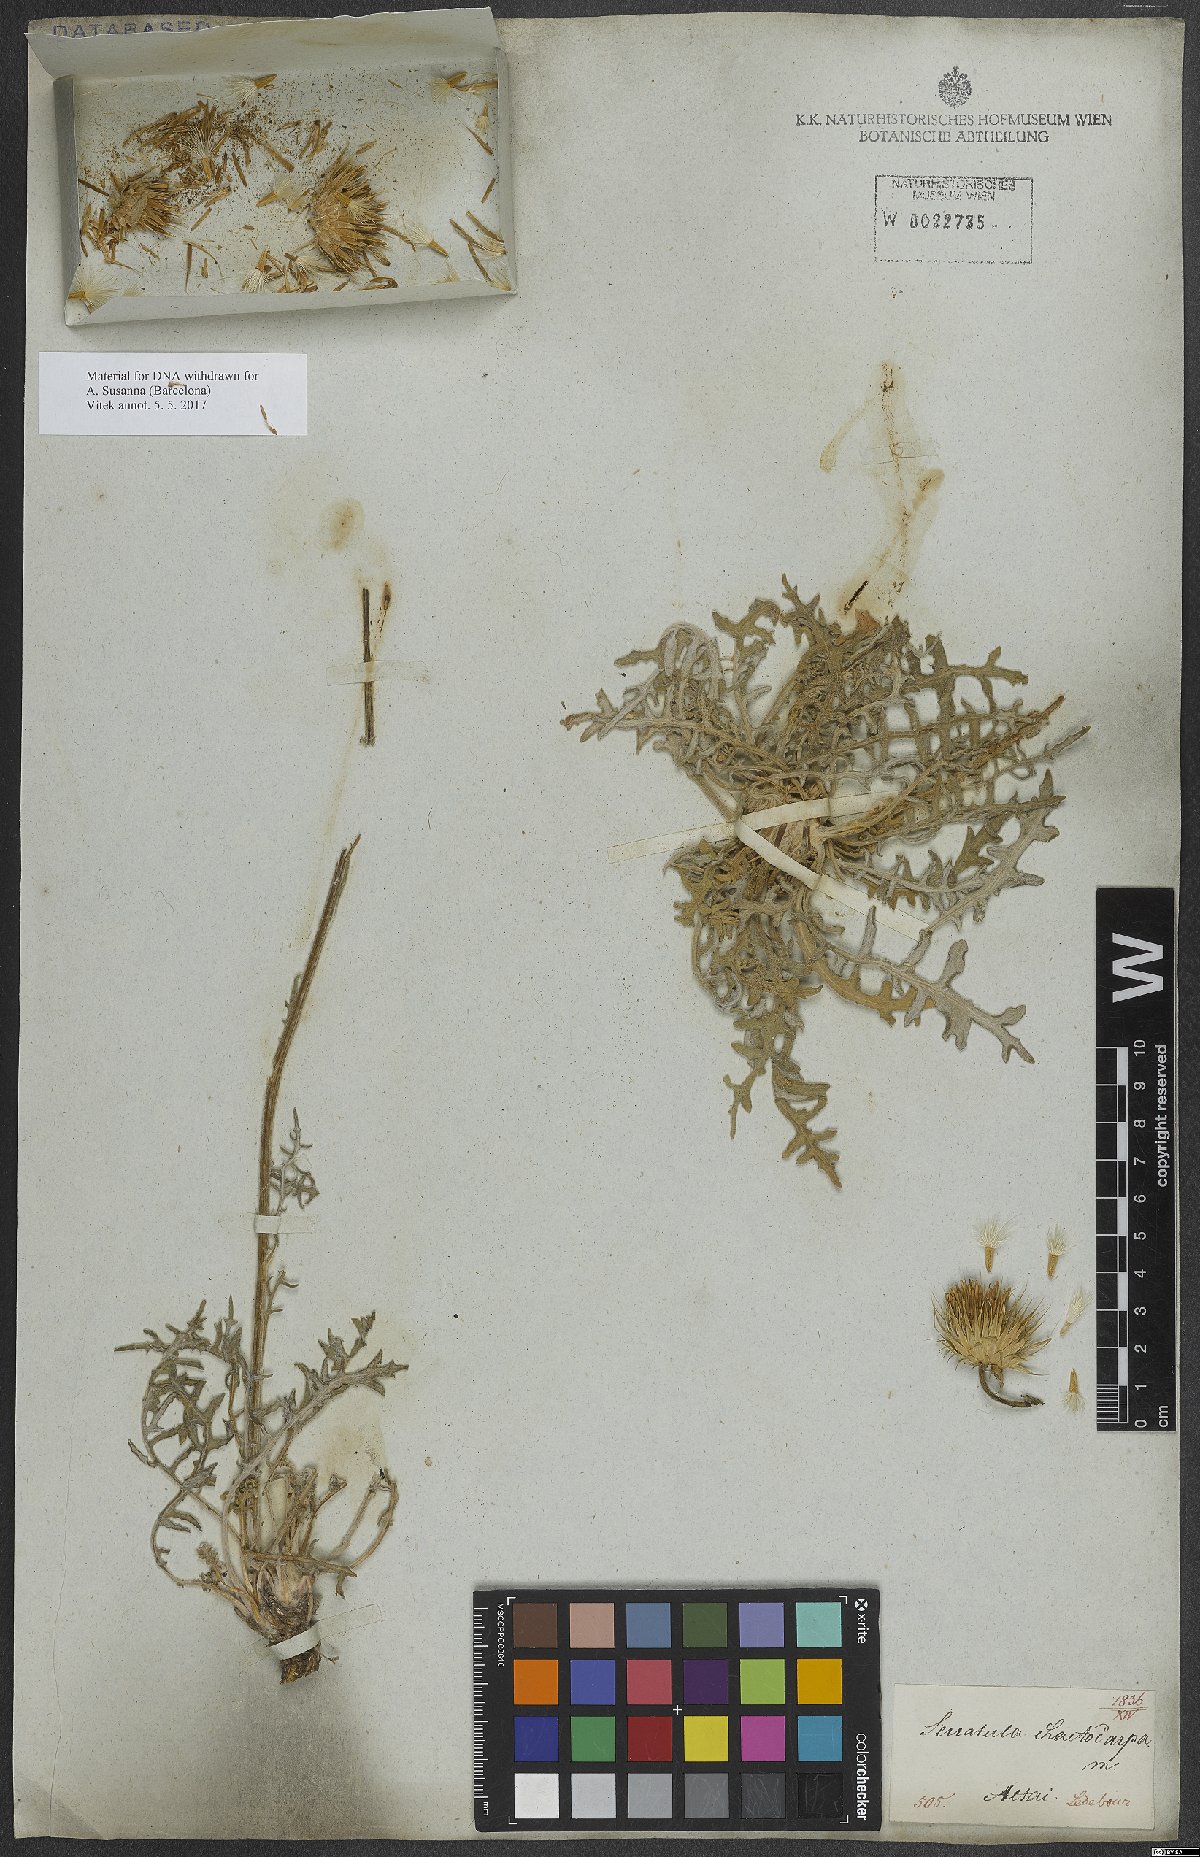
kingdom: Plantae
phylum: Tracheophyta
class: Magnoliopsida
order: Asterales
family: Asteraceae
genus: Jurinea
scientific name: Jurinea chaetocarpa
